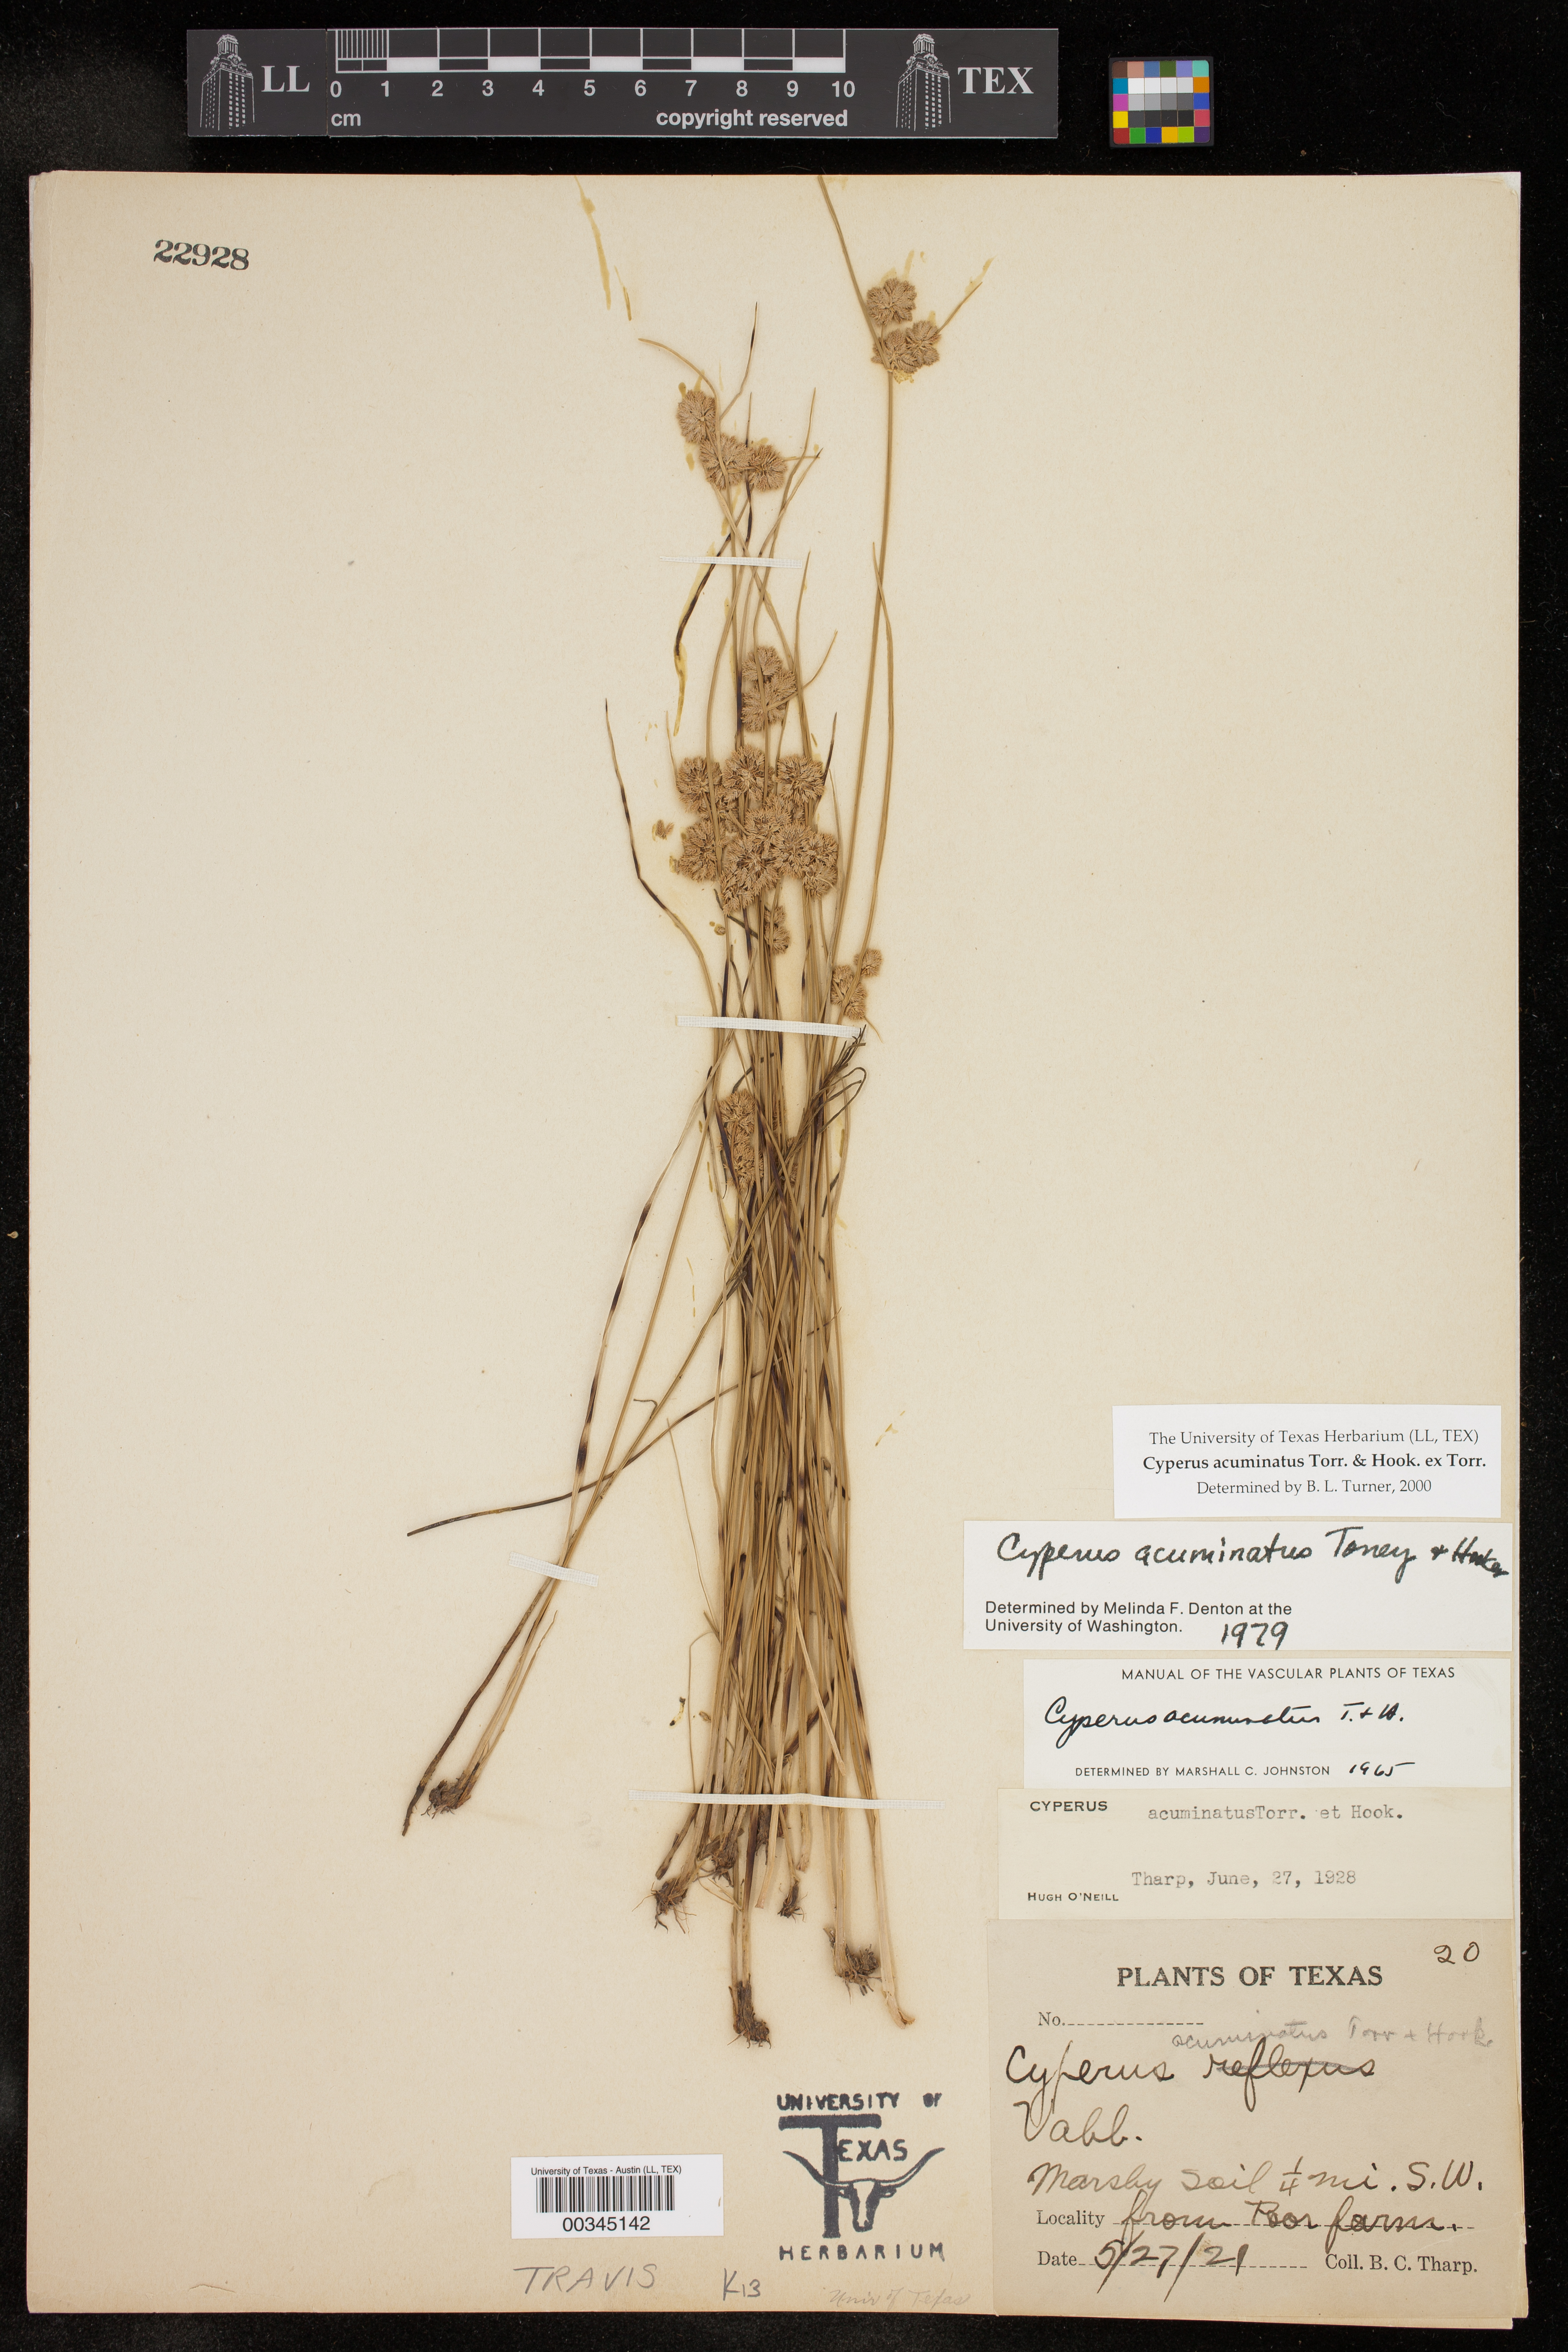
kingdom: Plantae
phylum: Tracheophyta
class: Liliopsida
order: Poales
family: Cyperaceae
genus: Cyperus
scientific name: Cyperus acuminatus
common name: Short-pointed cyperus
